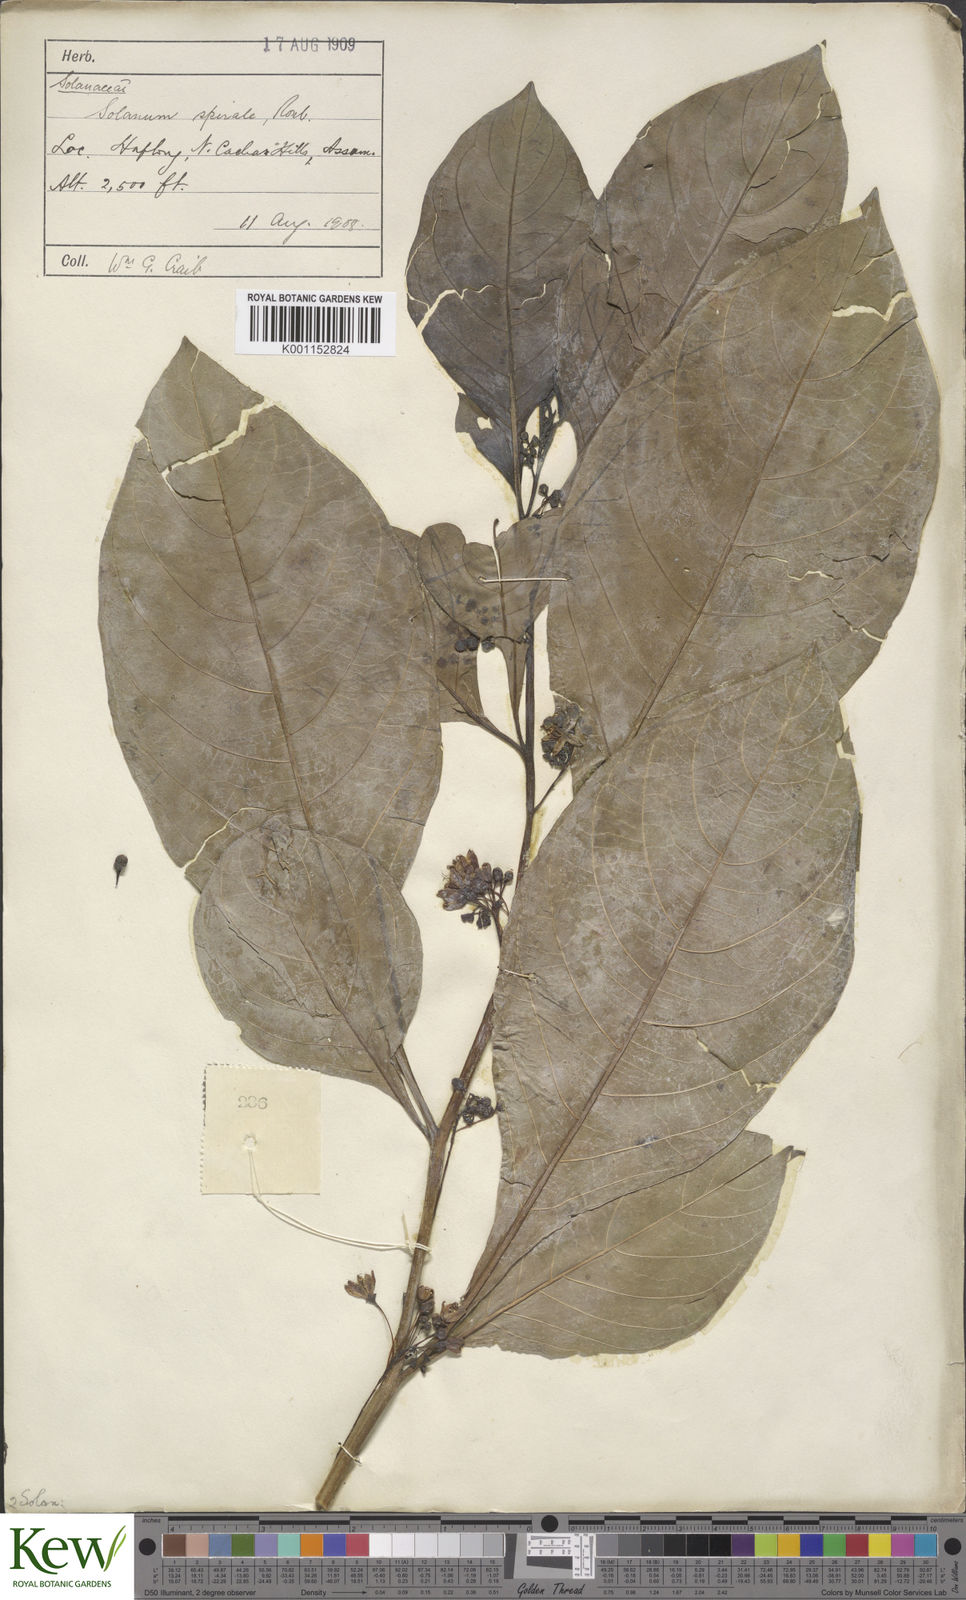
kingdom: Plantae
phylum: Tracheophyta
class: Magnoliopsida
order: Solanales
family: Solanaceae
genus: Solanum
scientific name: Solanum spirale
